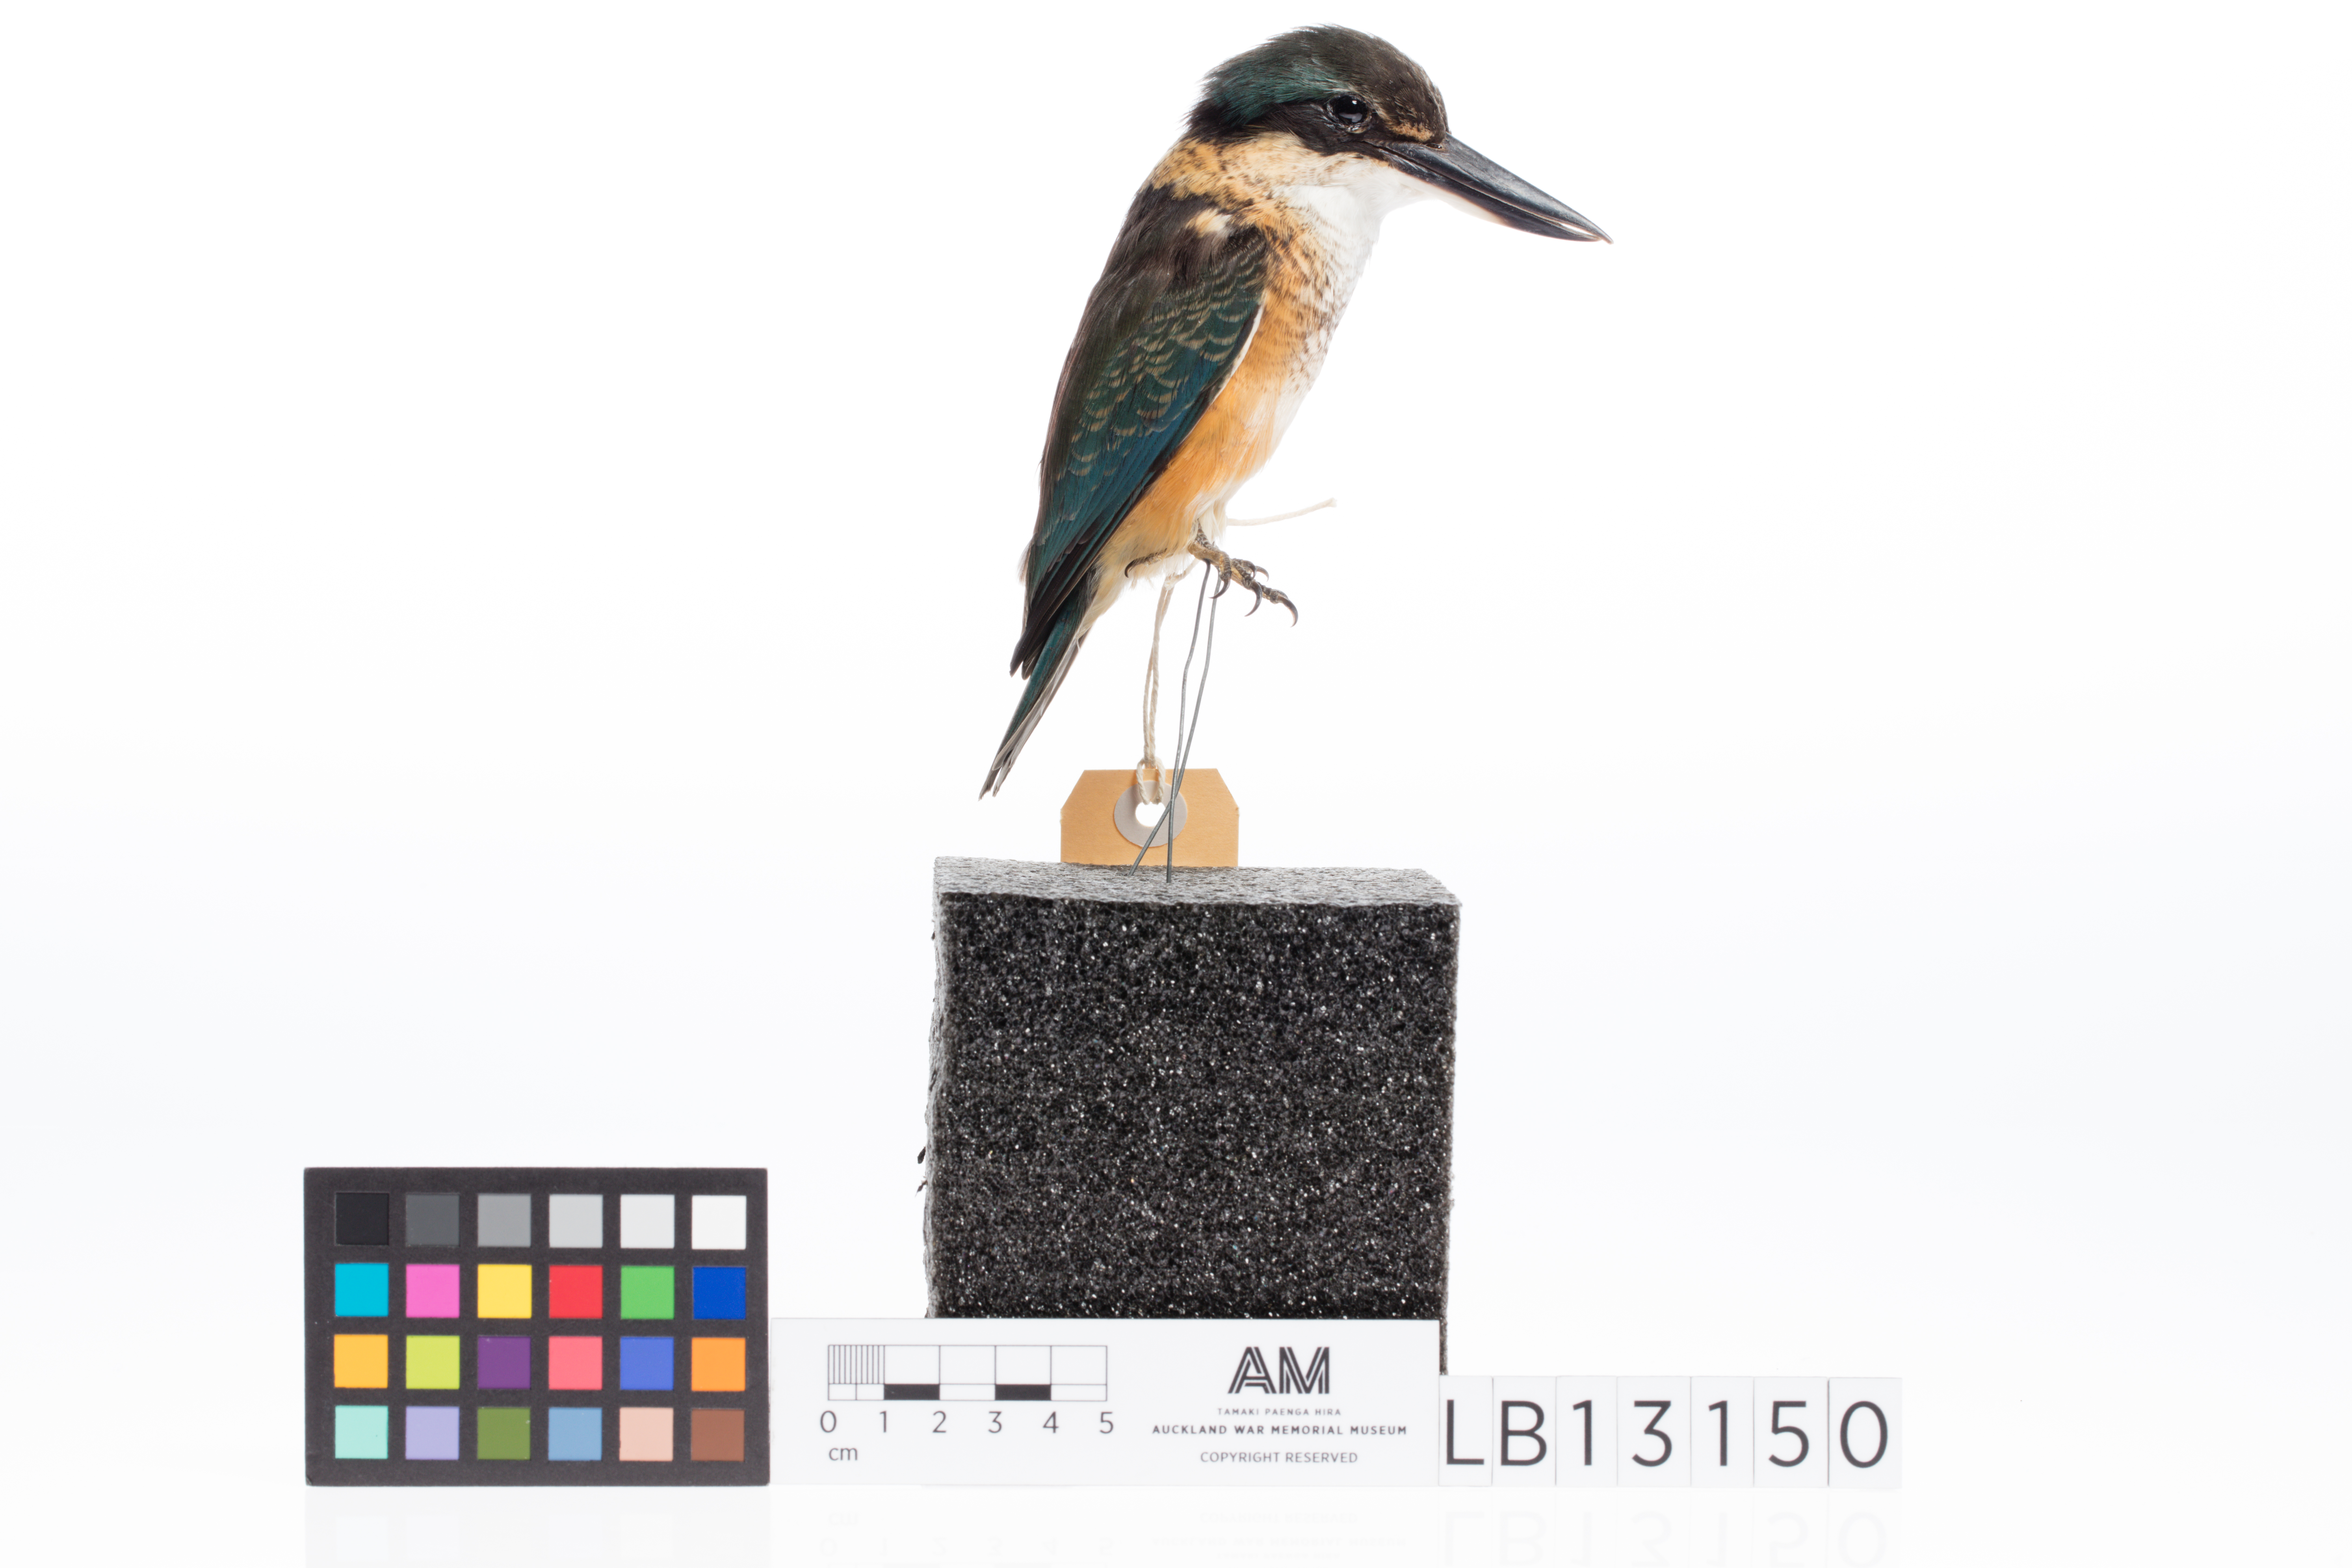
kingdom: Animalia
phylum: Chordata
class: Aves
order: Coraciiformes
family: Alcedinidae
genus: Todiramphus
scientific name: Todiramphus sanctus
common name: Sacred kingfisher
